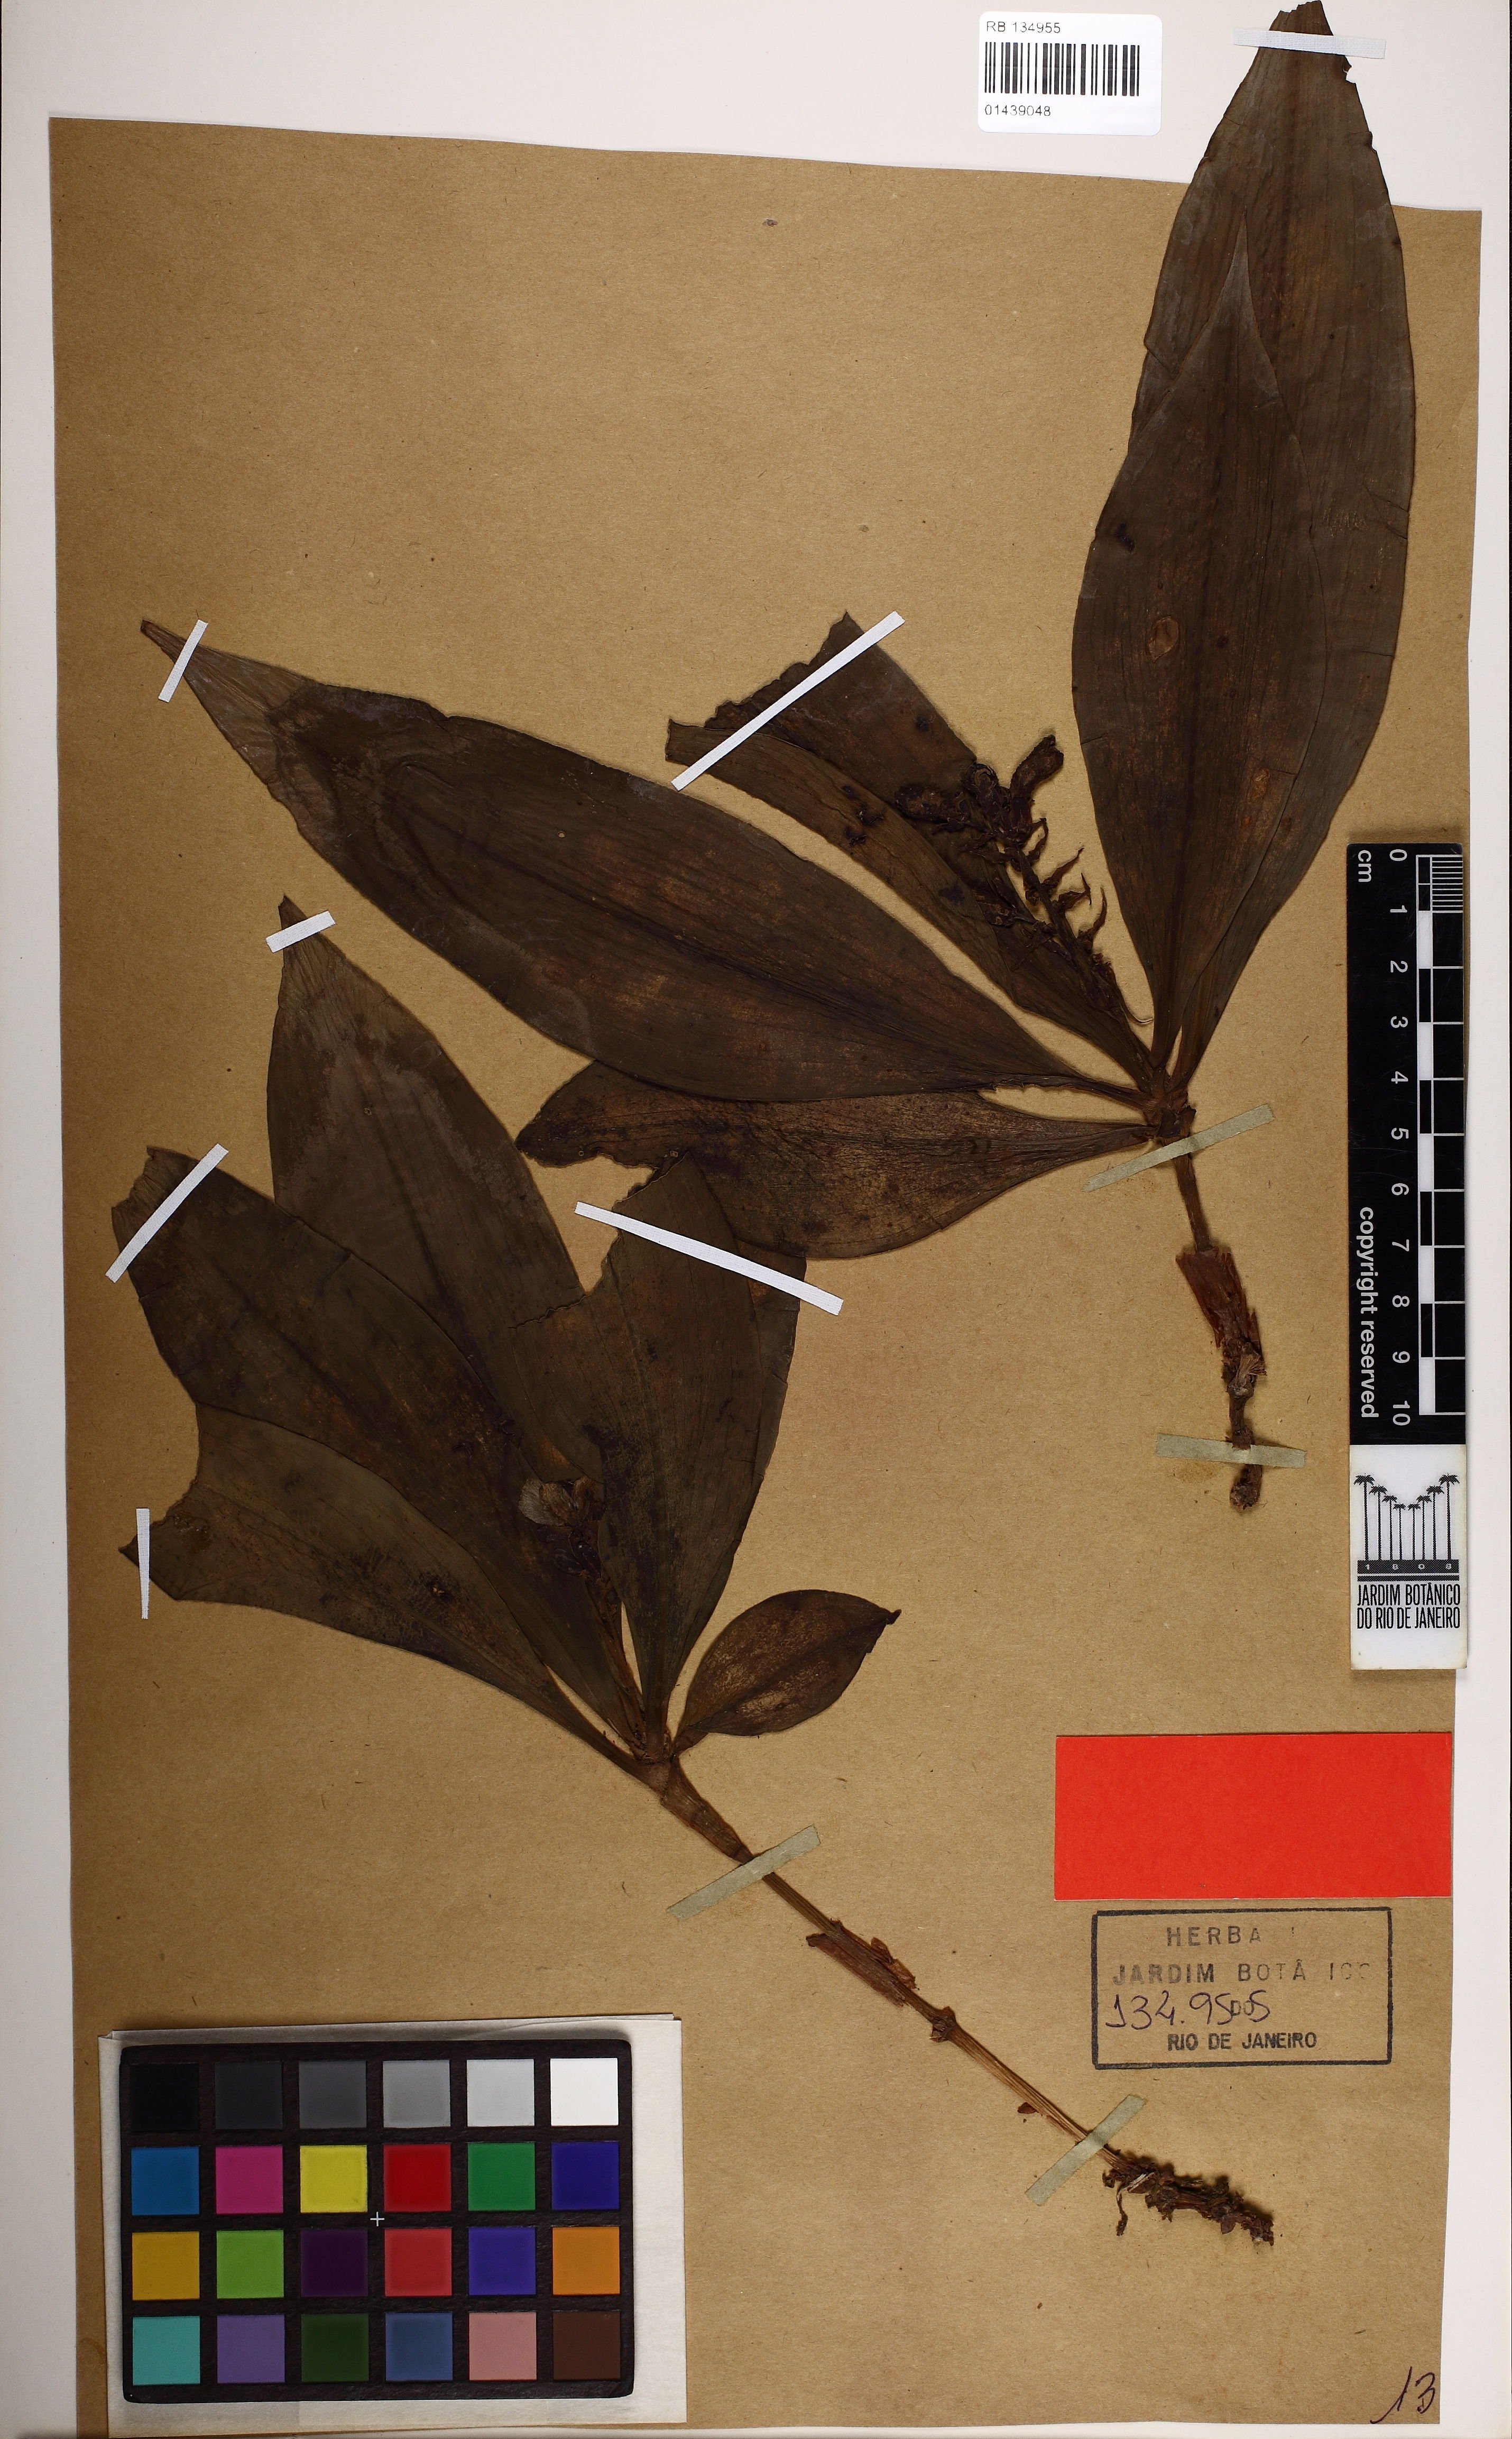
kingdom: Plantae
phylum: Tracheophyta
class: Liliopsida
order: Commelinales
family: Commelinaceae
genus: Dichorisandra
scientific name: Dichorisandra nana
